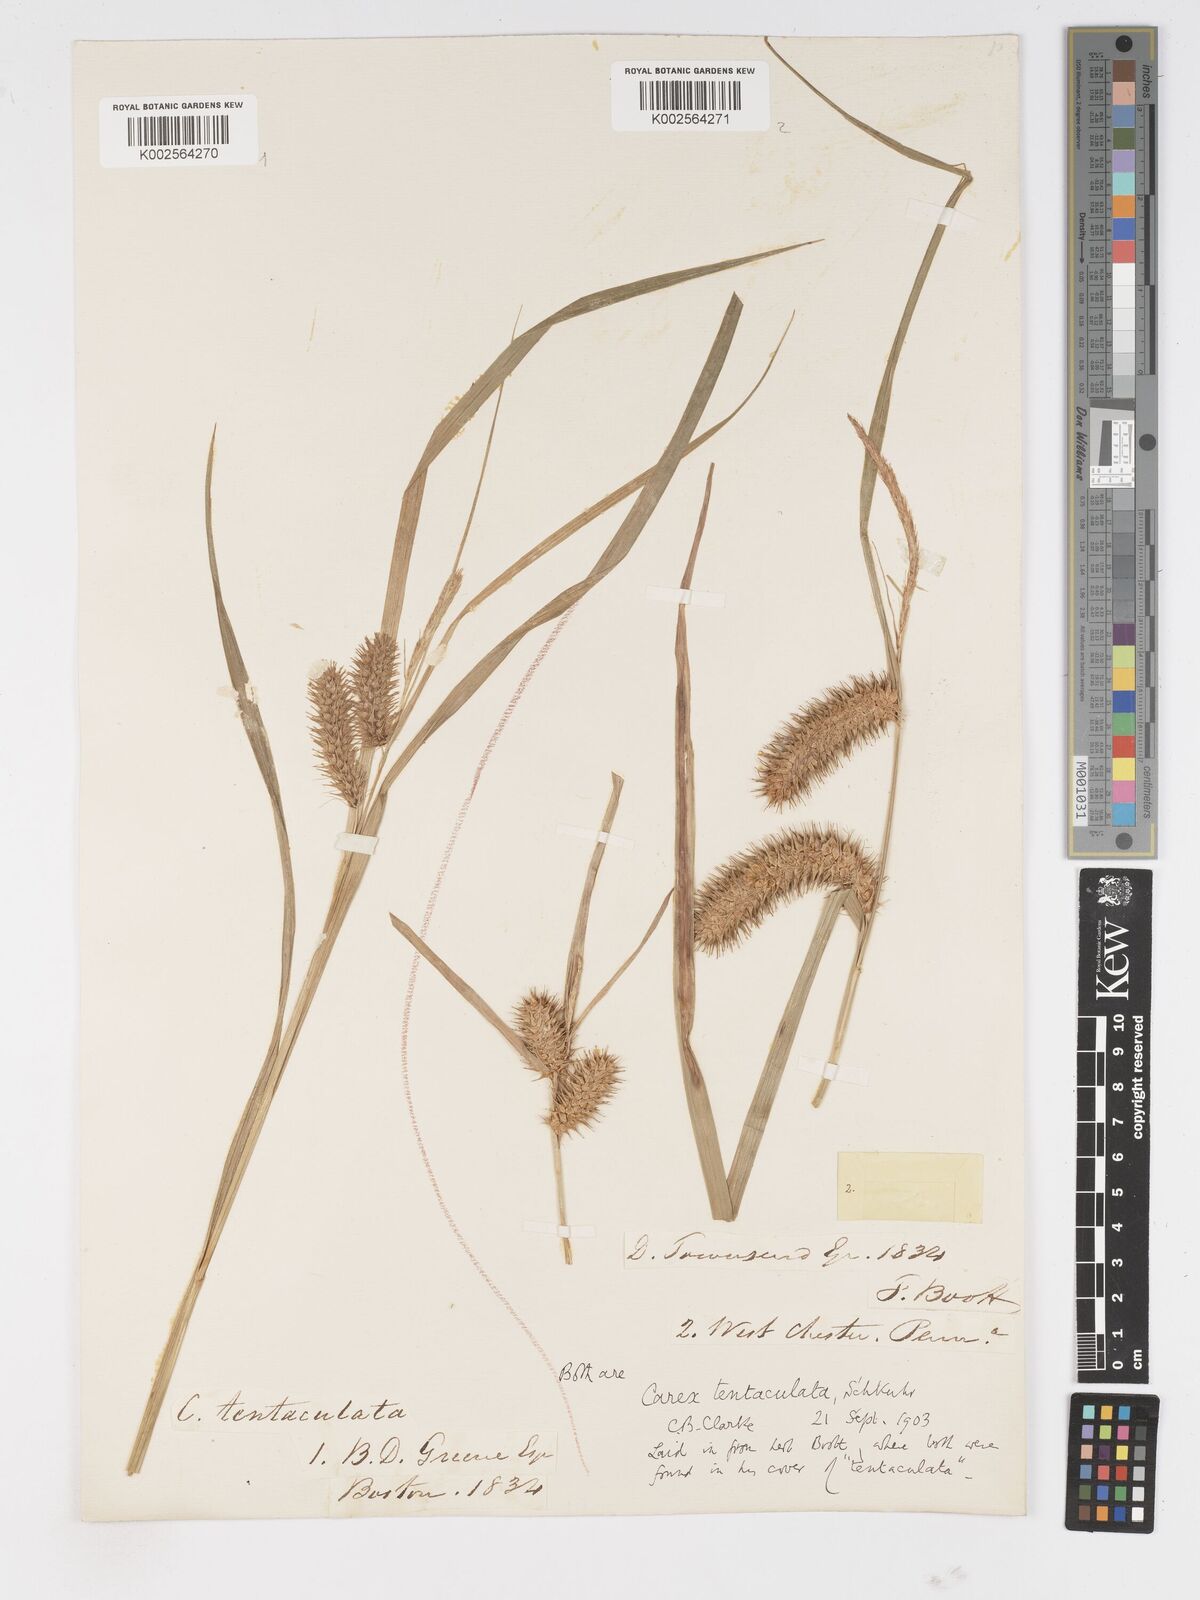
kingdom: Plantae
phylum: Tracheophyta
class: Liliopsida
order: Poales
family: Cyperaceae
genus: Carex
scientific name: Carex lurida
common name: Sallow sedge
